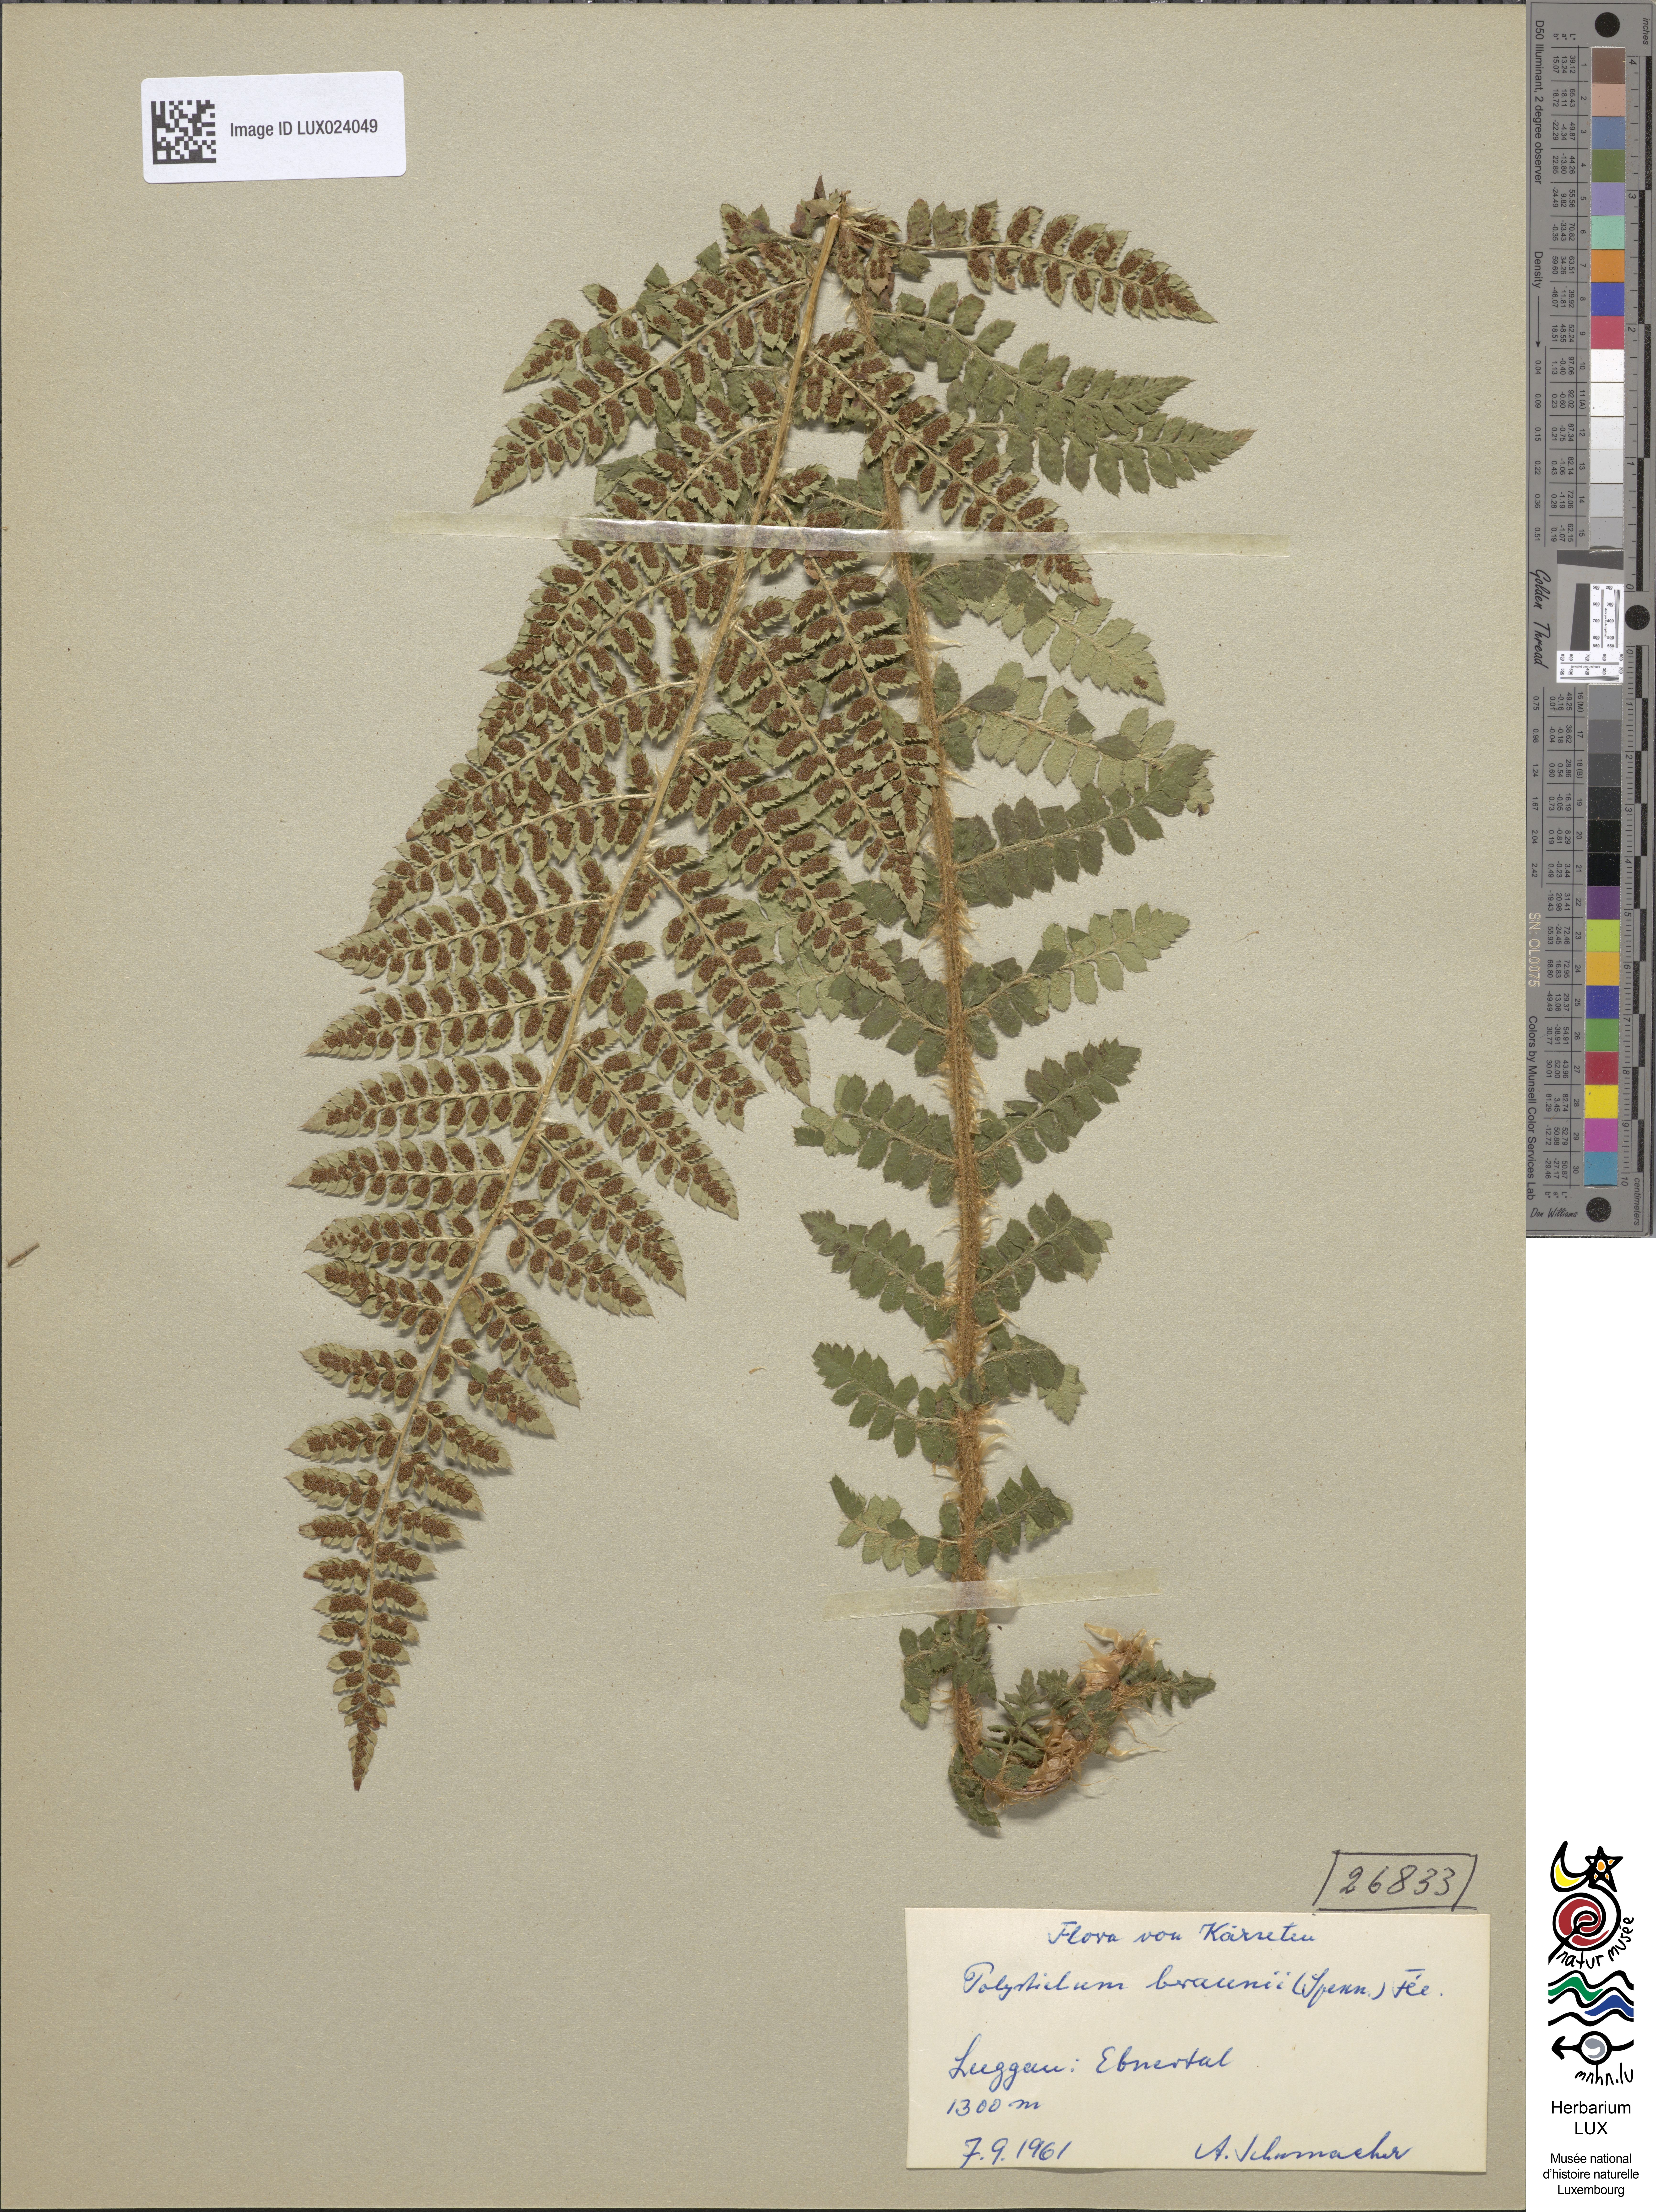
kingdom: Plantae
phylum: Tracheophyta
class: Polypodiopsida
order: Polypodiales
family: Dryopteridaceae
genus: Polystichum
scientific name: Polystichum braunii
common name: Braun's holly fern
